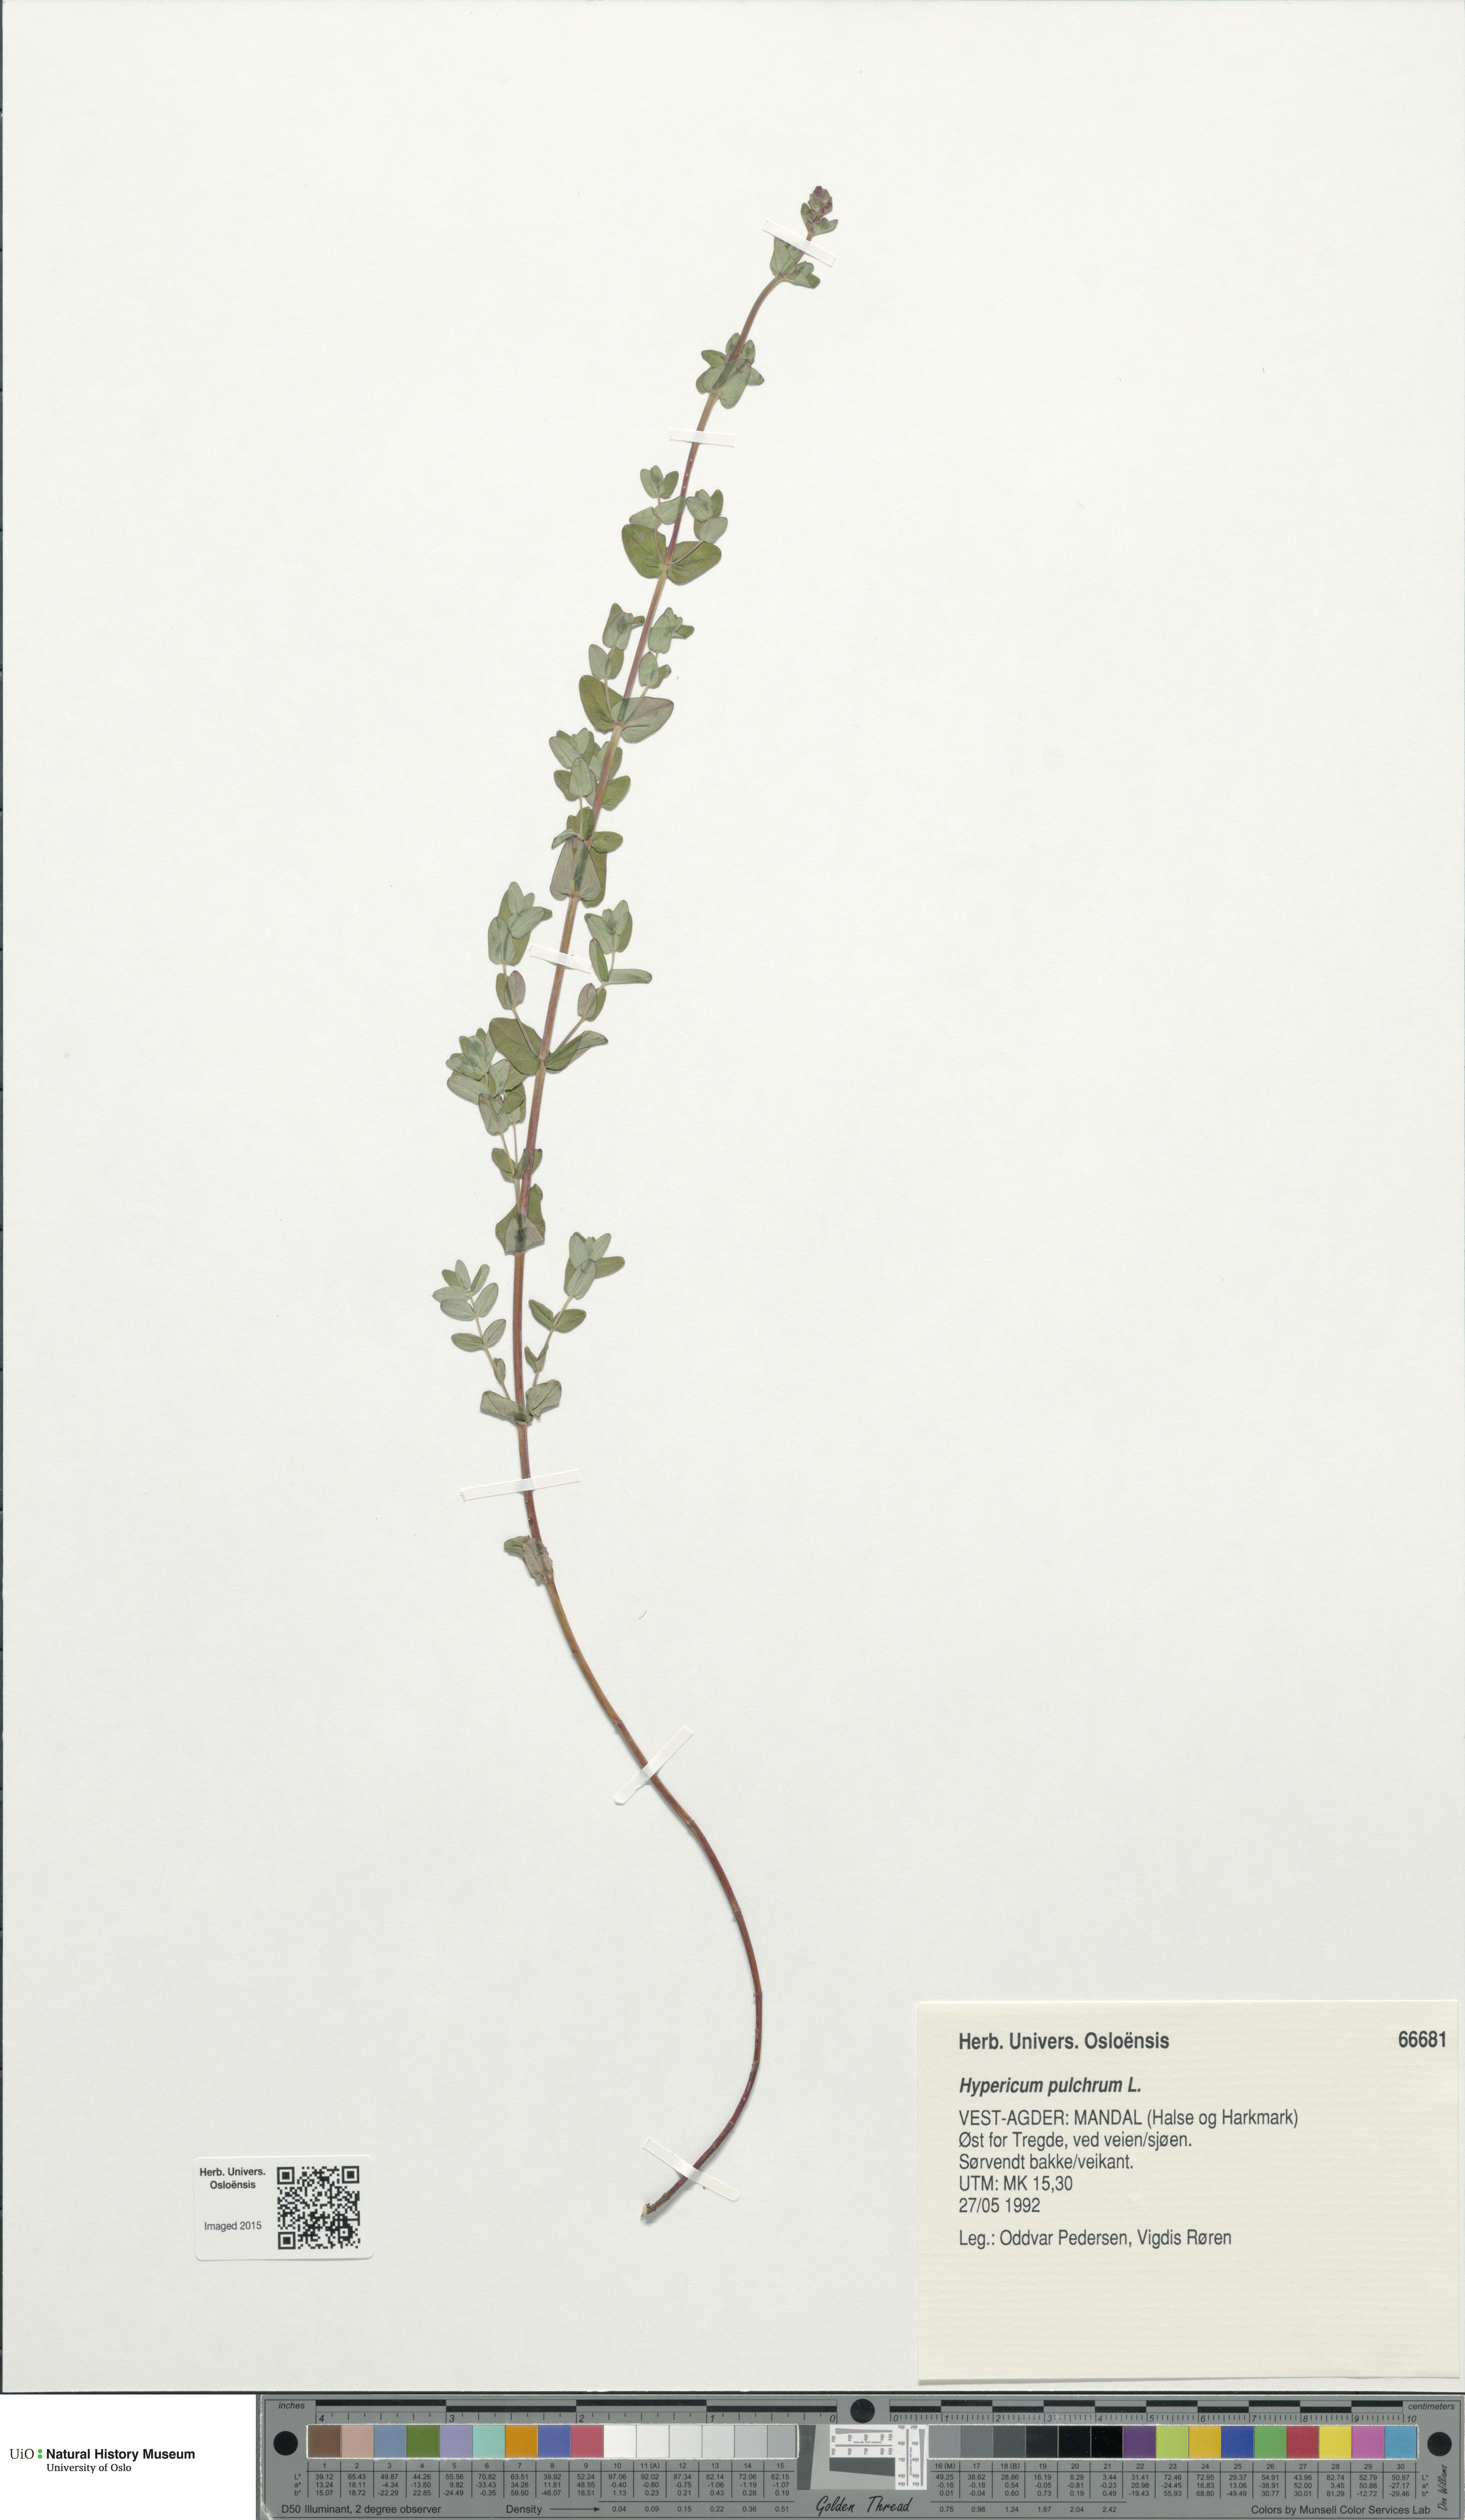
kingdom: Plantae
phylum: Tracheophyta
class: Magnoliopsida
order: Malpighiales
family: Hypericaceae
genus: Hypericum
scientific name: Hypericum pulchrum
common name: Slender st. john's-wort
